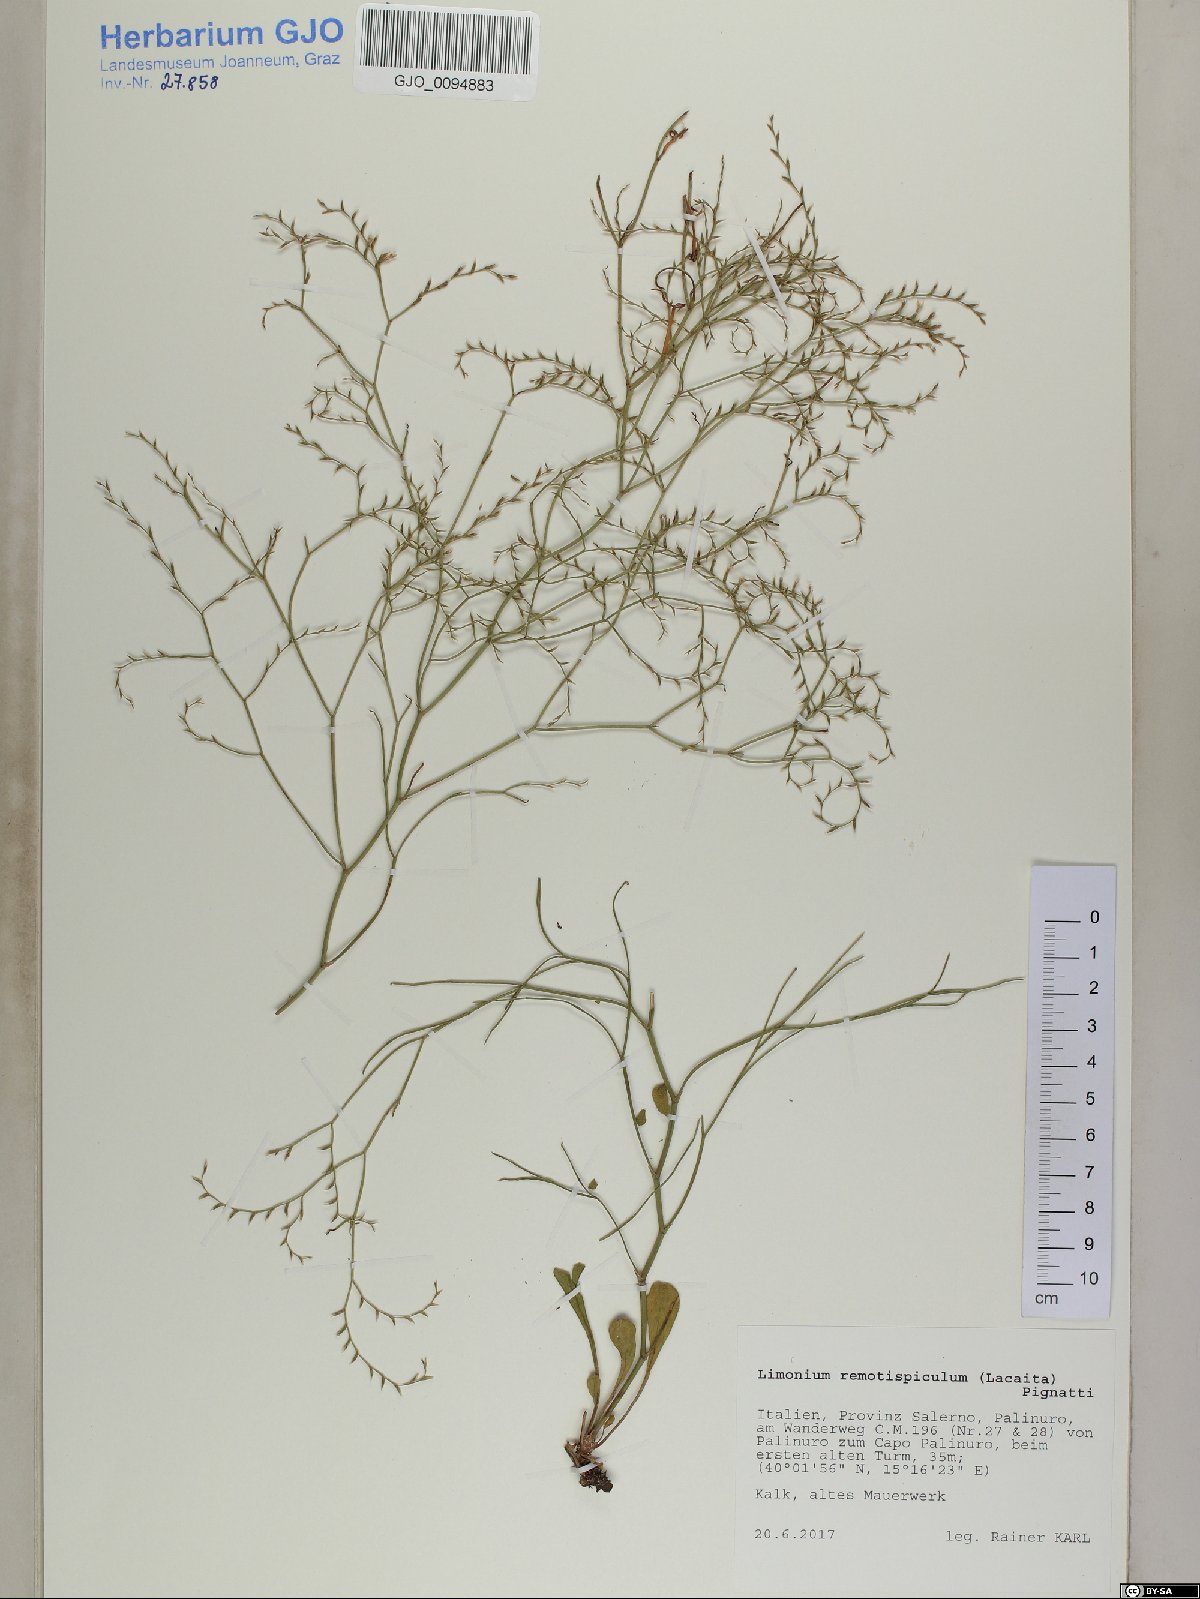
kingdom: Plantae
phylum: Tracheophyta
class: Magnoliopsida
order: Caryophyllales
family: Plumbaginaceae
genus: Limonium
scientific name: Limonium remotispiculum
